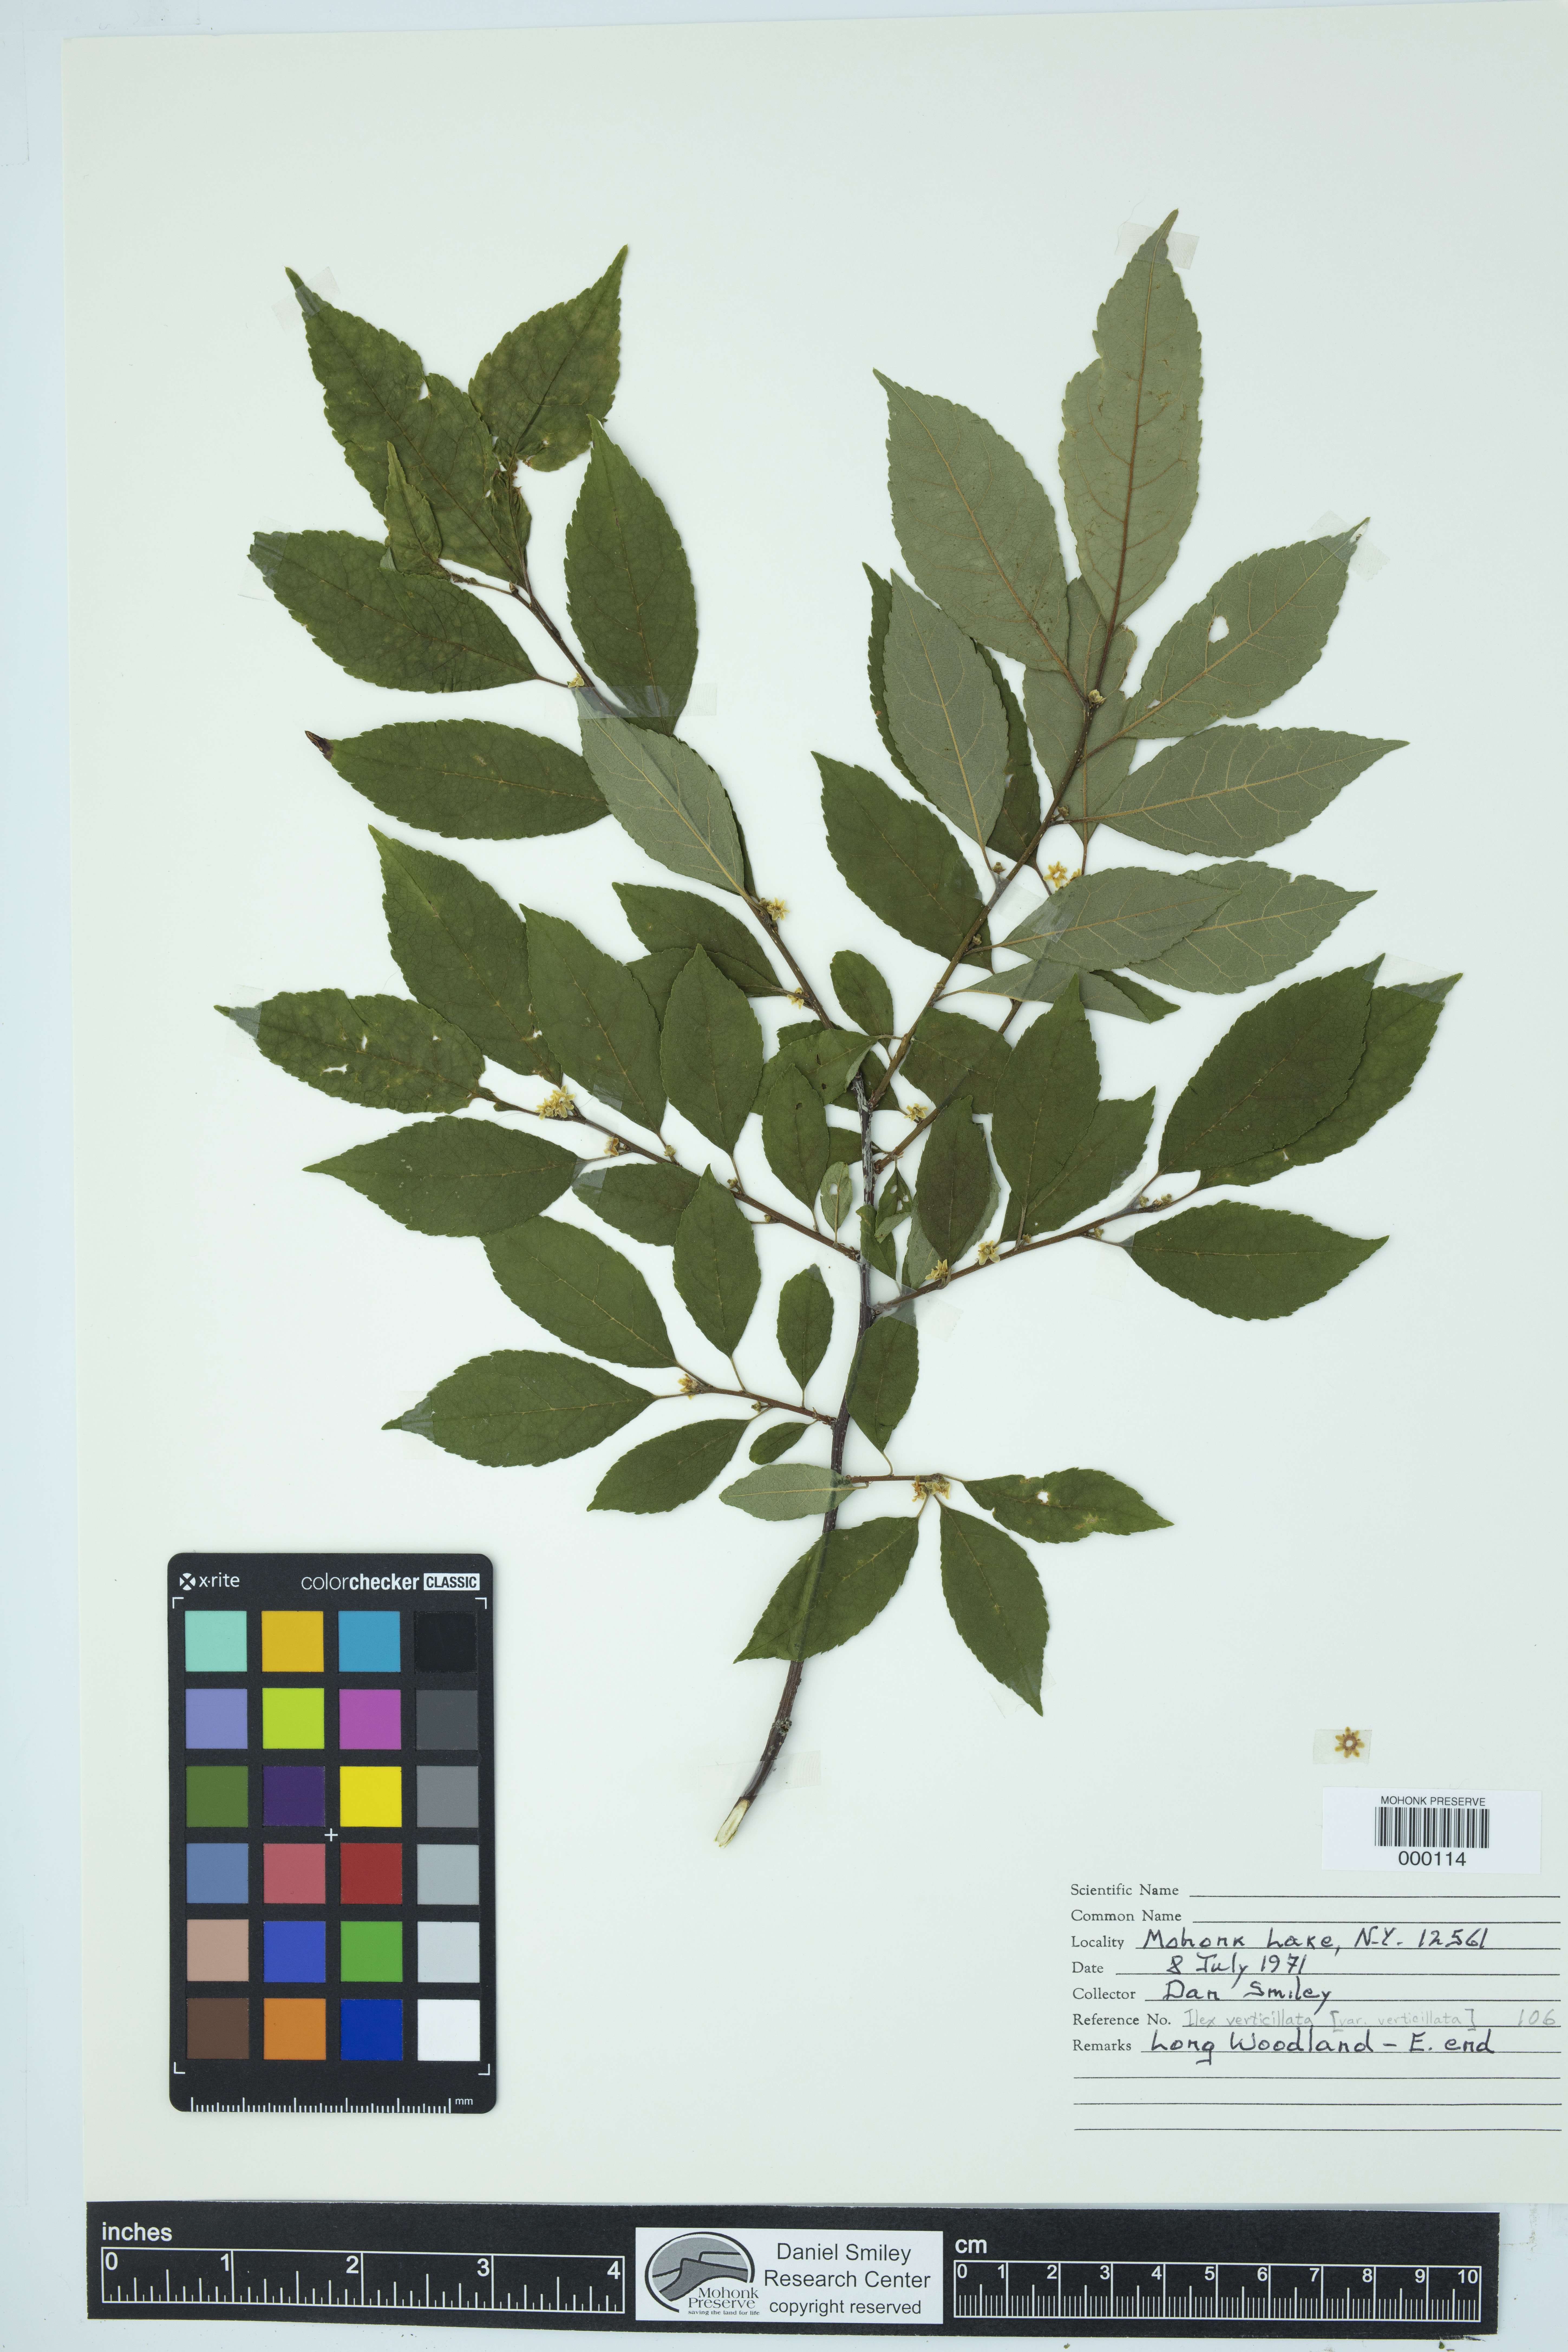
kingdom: Plantae
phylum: Tracheophyta
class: Magnoliopsida
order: Aquifoliales
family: Aquifoliaceae
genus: Ilex
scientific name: Ilex verticillata
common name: Virginia winterberry
